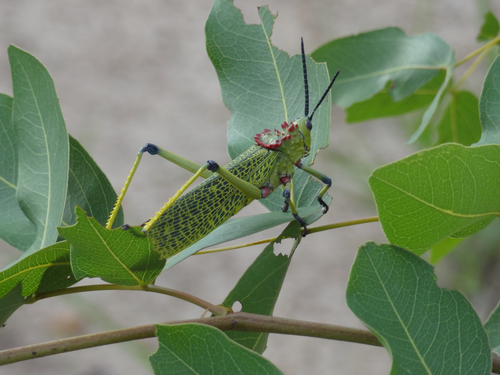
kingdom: Animalia
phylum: Arthropoda
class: Insecta
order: Orthoptera
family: Pyrgomorphidae
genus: Phymateus
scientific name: Phymateus viridipes
